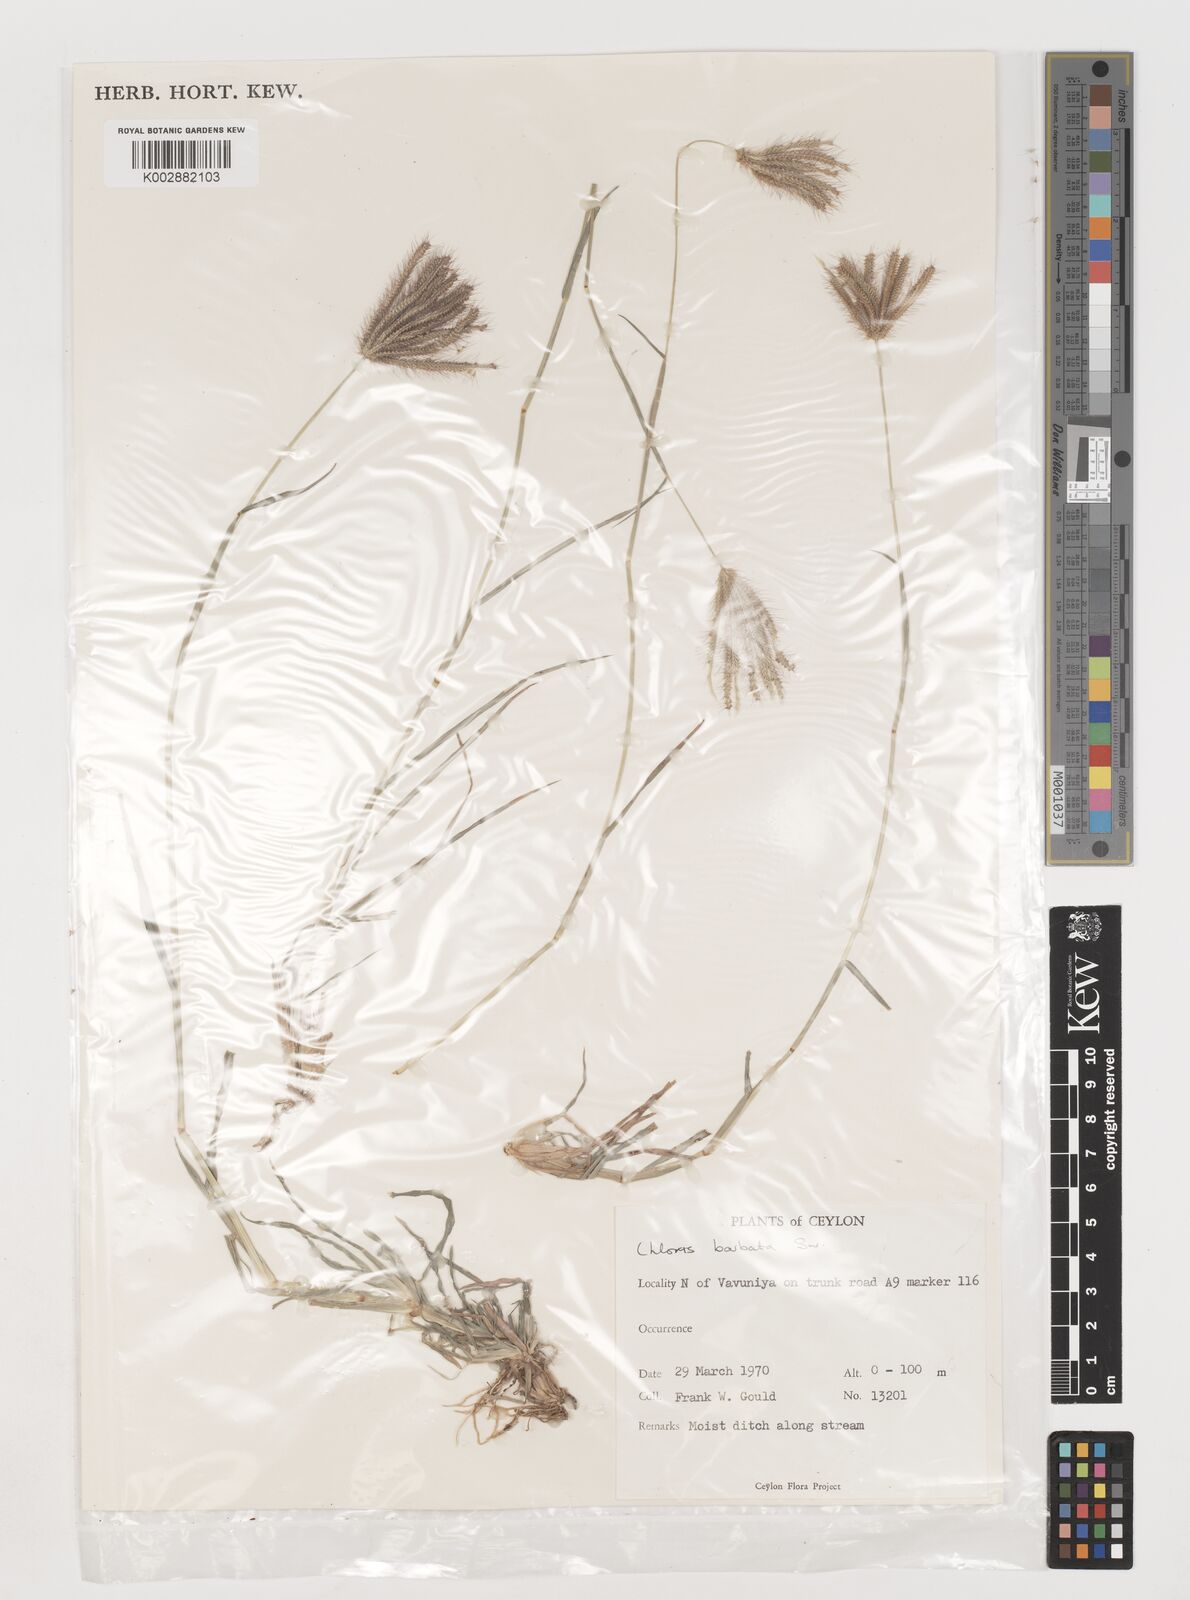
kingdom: Plantae
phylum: Tracheophyta
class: Liliopsida
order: Poales
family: Poaceae
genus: Chloris
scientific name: Chloris barbata
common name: Swollen fingergrass
